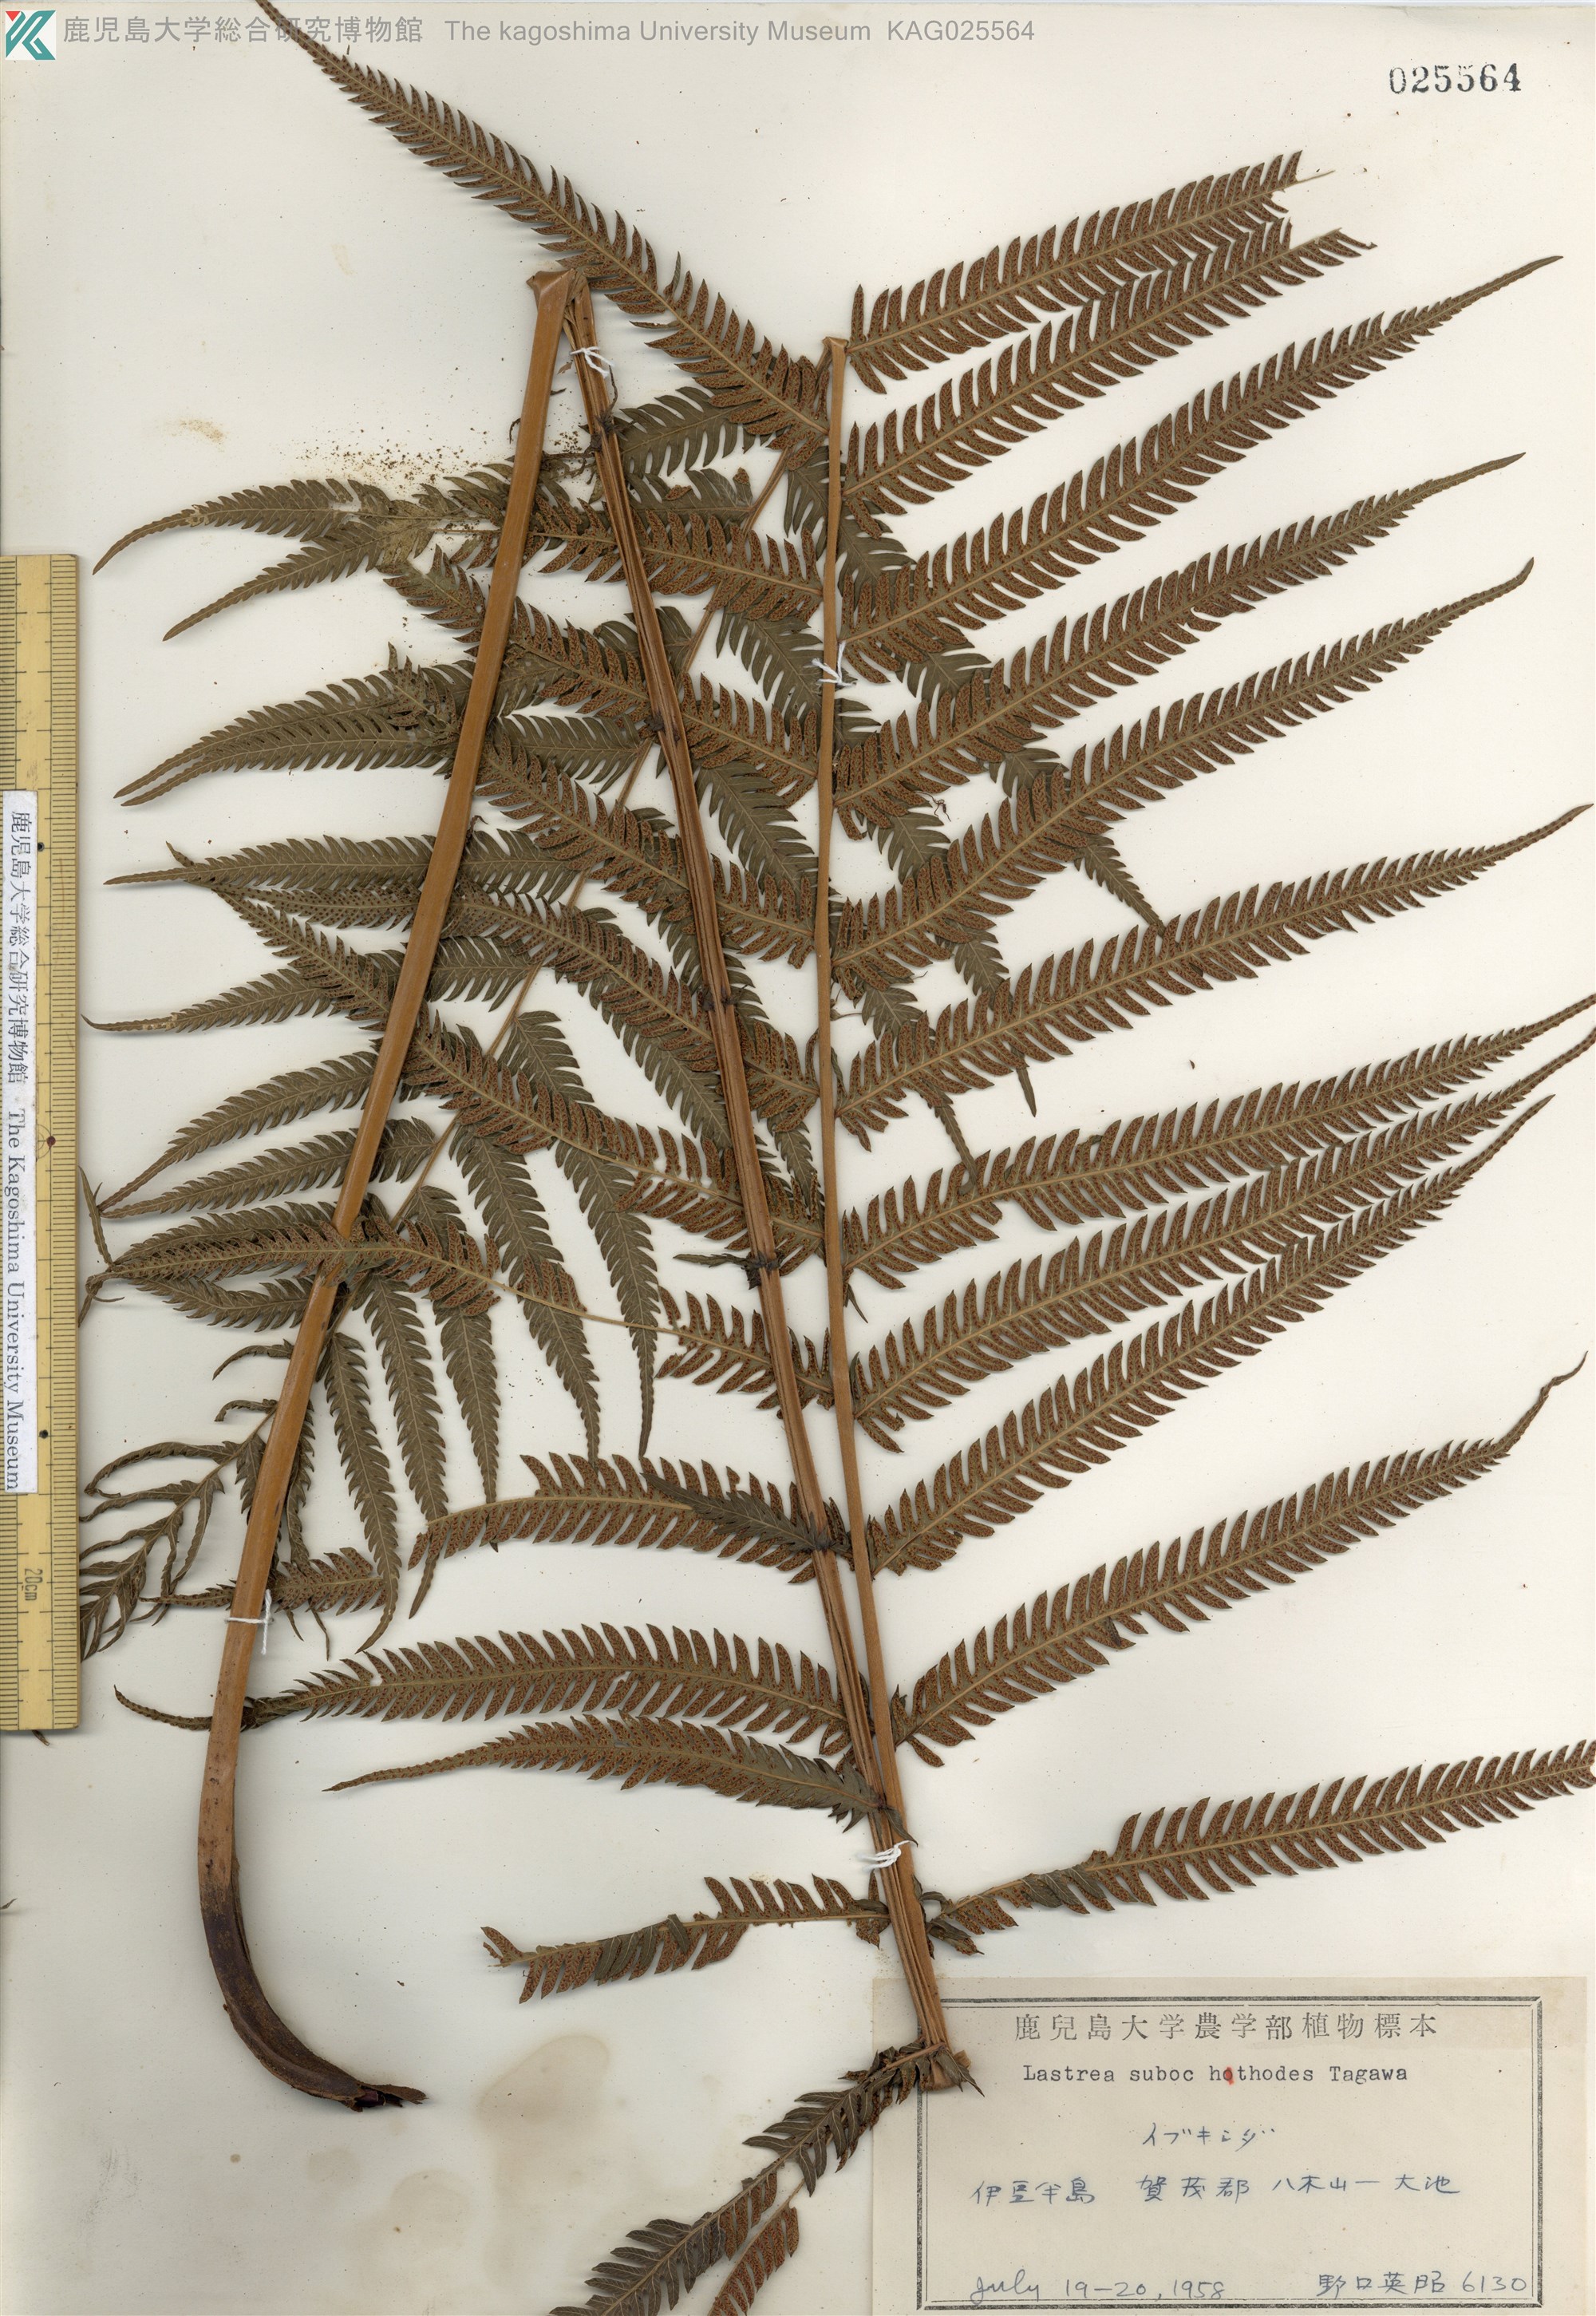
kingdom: Plantae
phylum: Tracheophyta
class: Polypodiopsida
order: Polypodiales
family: Thelypteridaceae
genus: Pseudocyclosorus
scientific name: Pseudocyclosorus esquirolii
